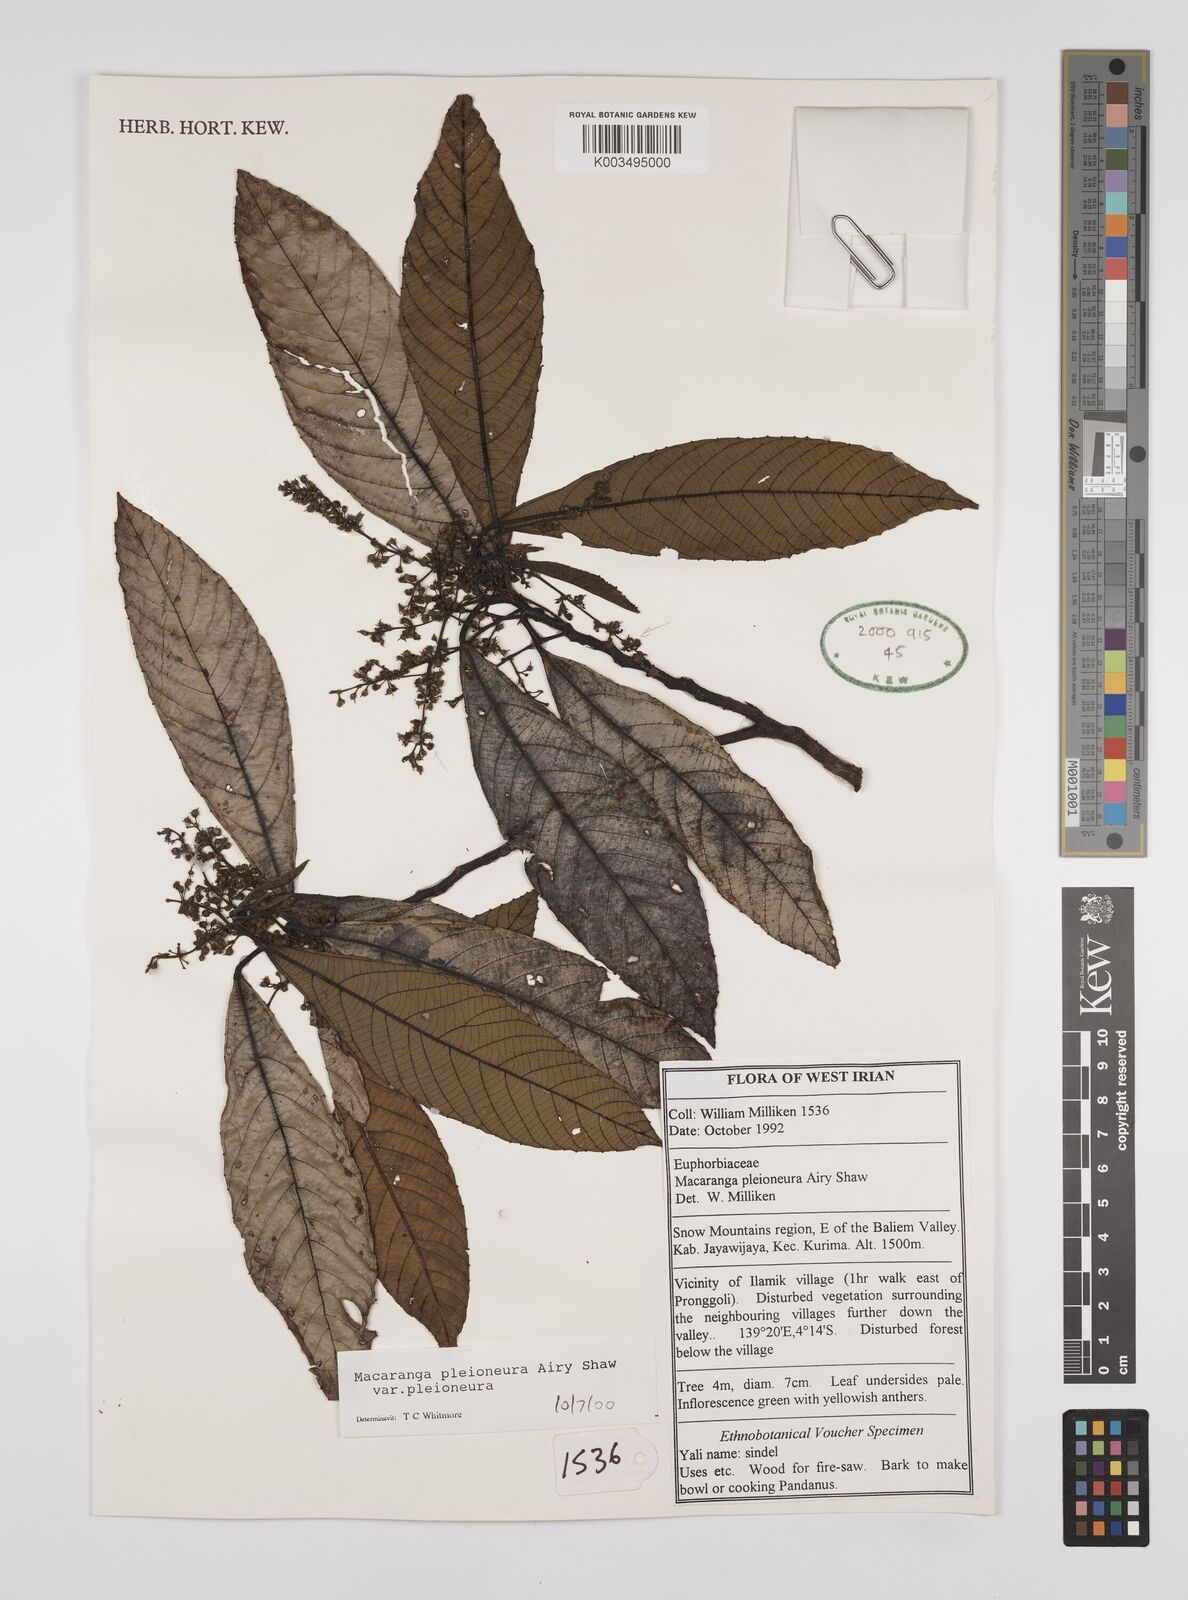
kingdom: Plantae
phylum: Tracheophyta
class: Magnoliopsida
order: Malpighiales
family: Euphorbiaceae
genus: Macaranga
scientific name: Macaranga pleioneura
